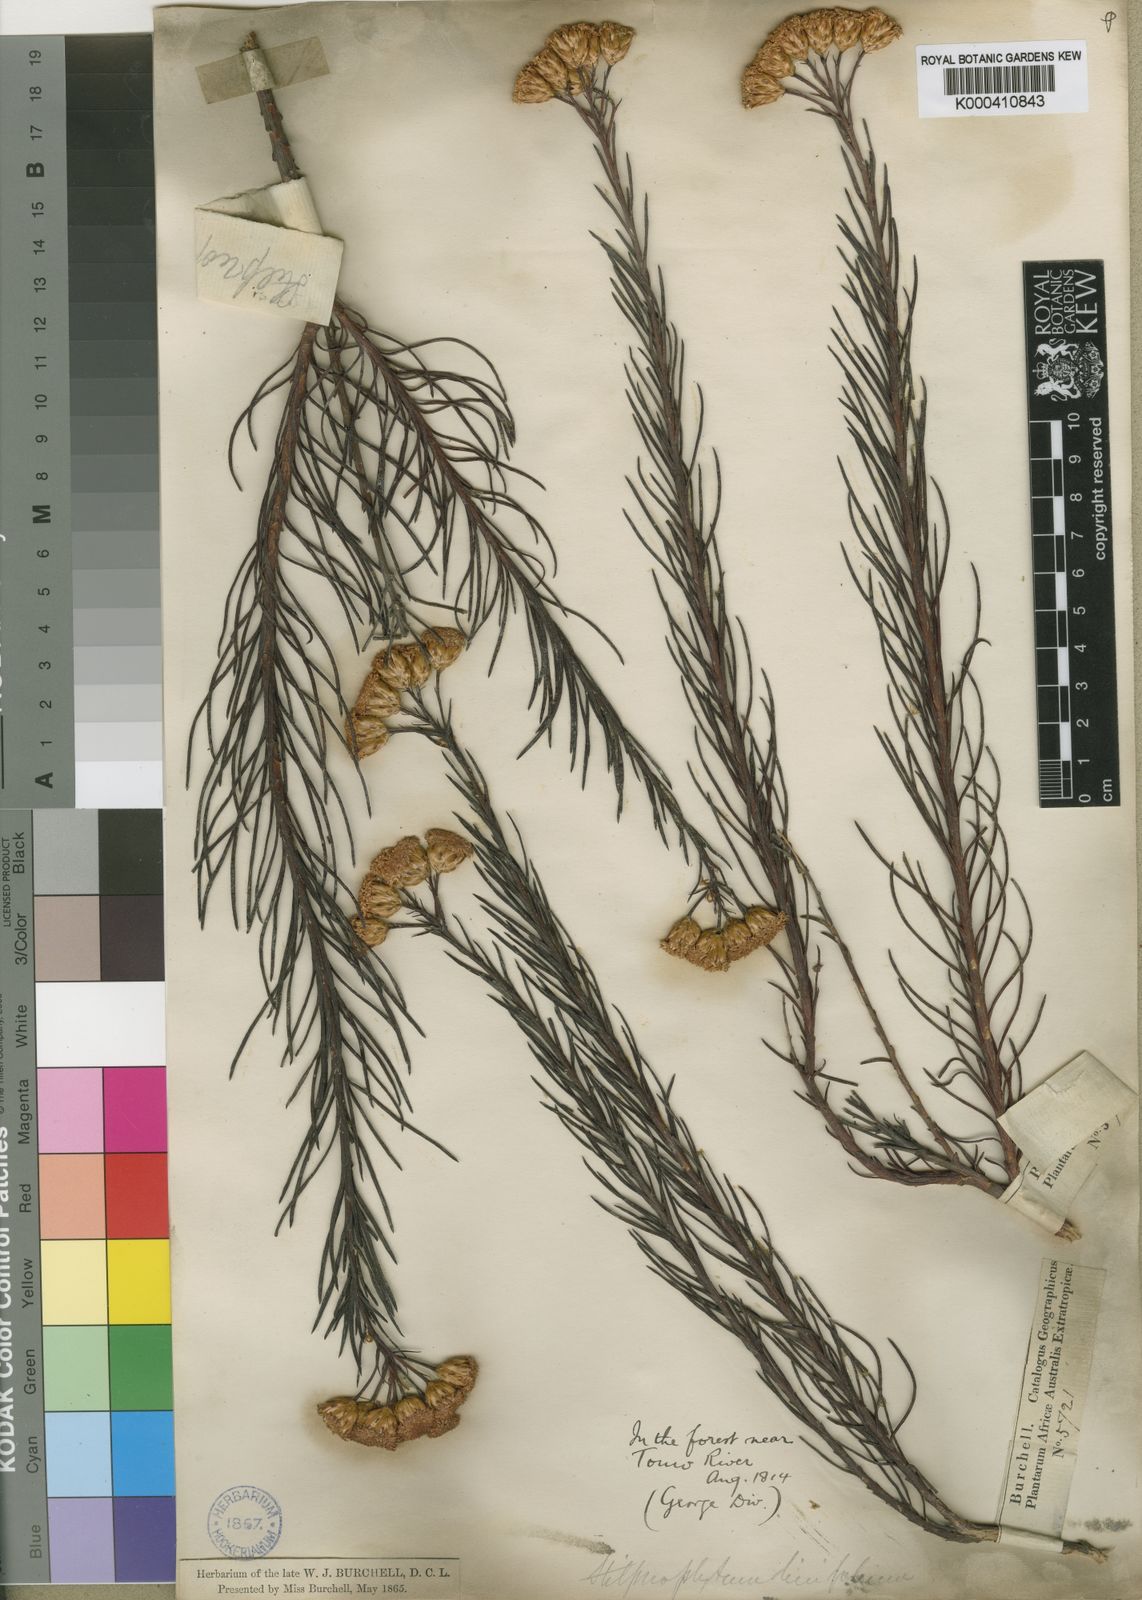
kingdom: Plantae
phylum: Tracheophyta
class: Magnoliopsida
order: Asterales
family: Asteraceae
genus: Athanasia
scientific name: Athanasia microcephala
